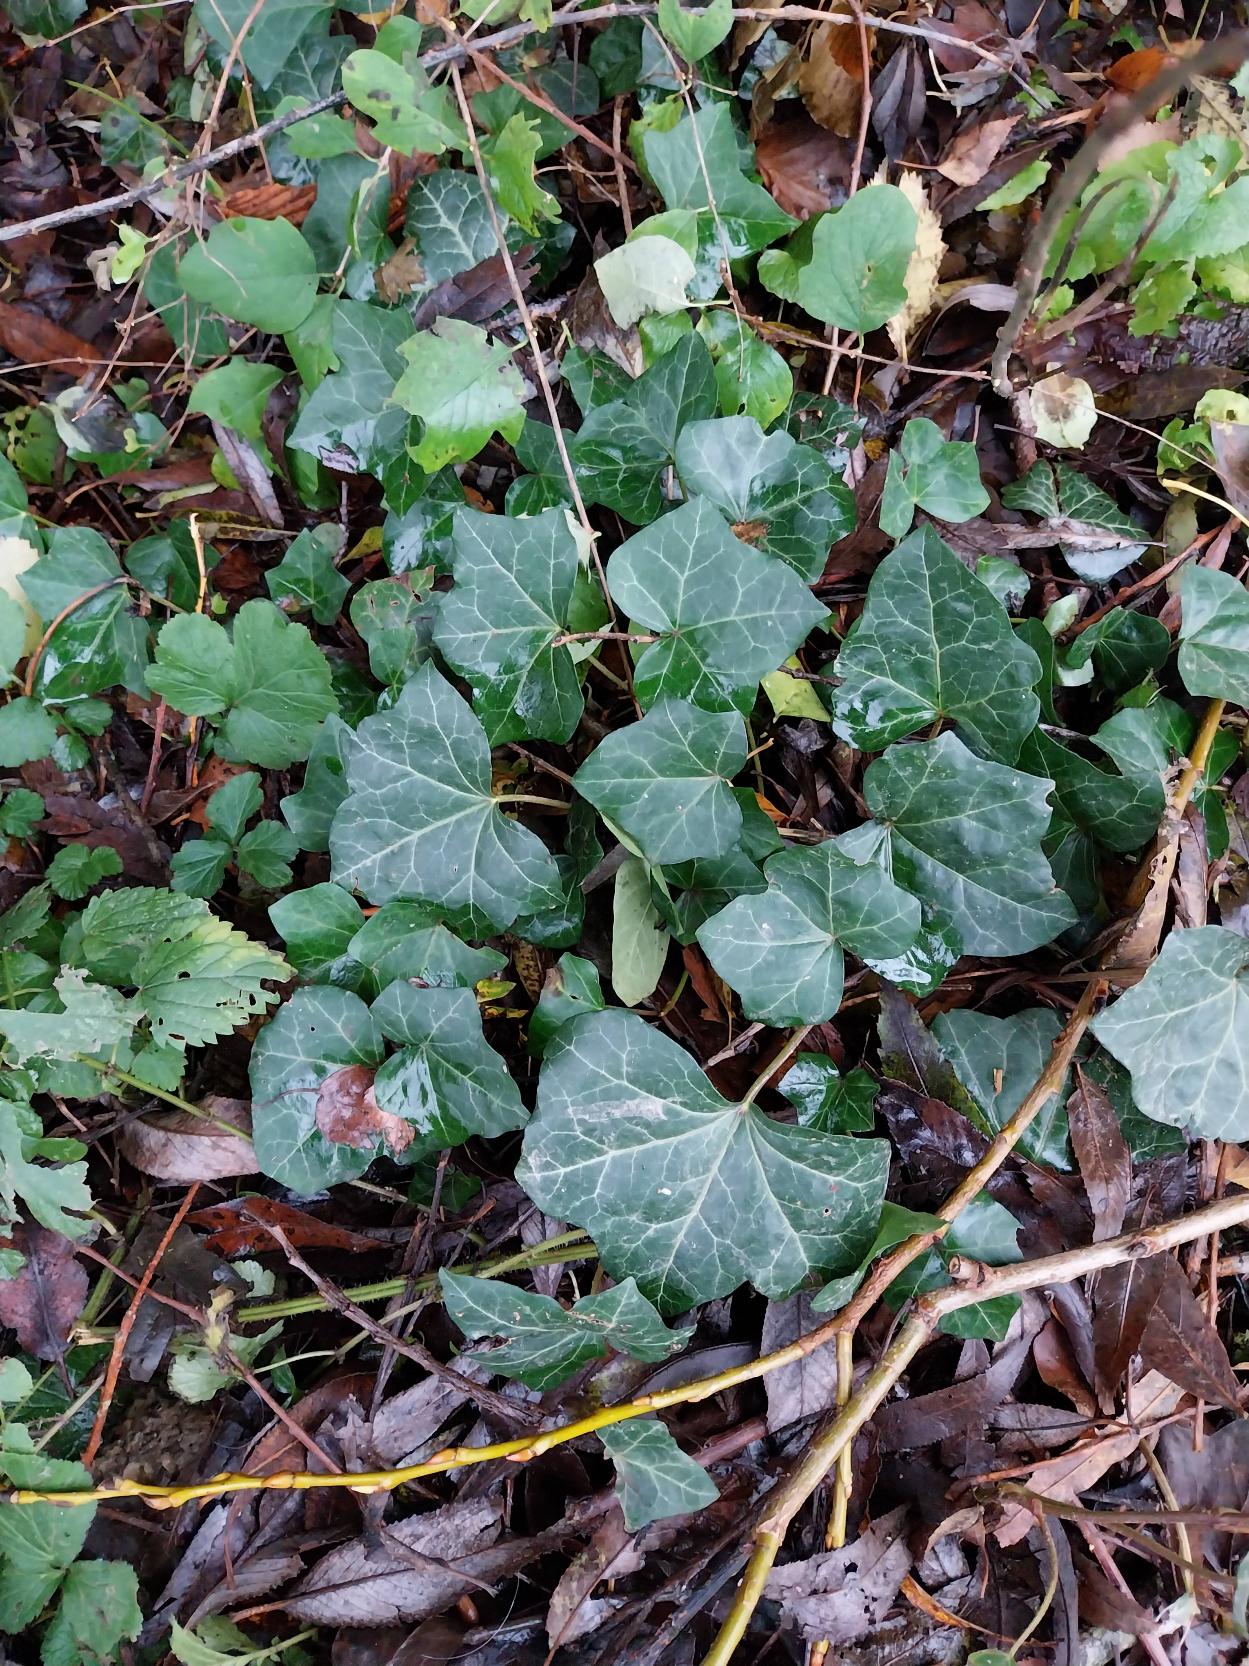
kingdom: Plantae
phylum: Tracheophyta
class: Magnoliopsida
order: Apiales
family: Araliaceae
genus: Hedera
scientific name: Hedera hibernica
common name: Irsk vedbend
